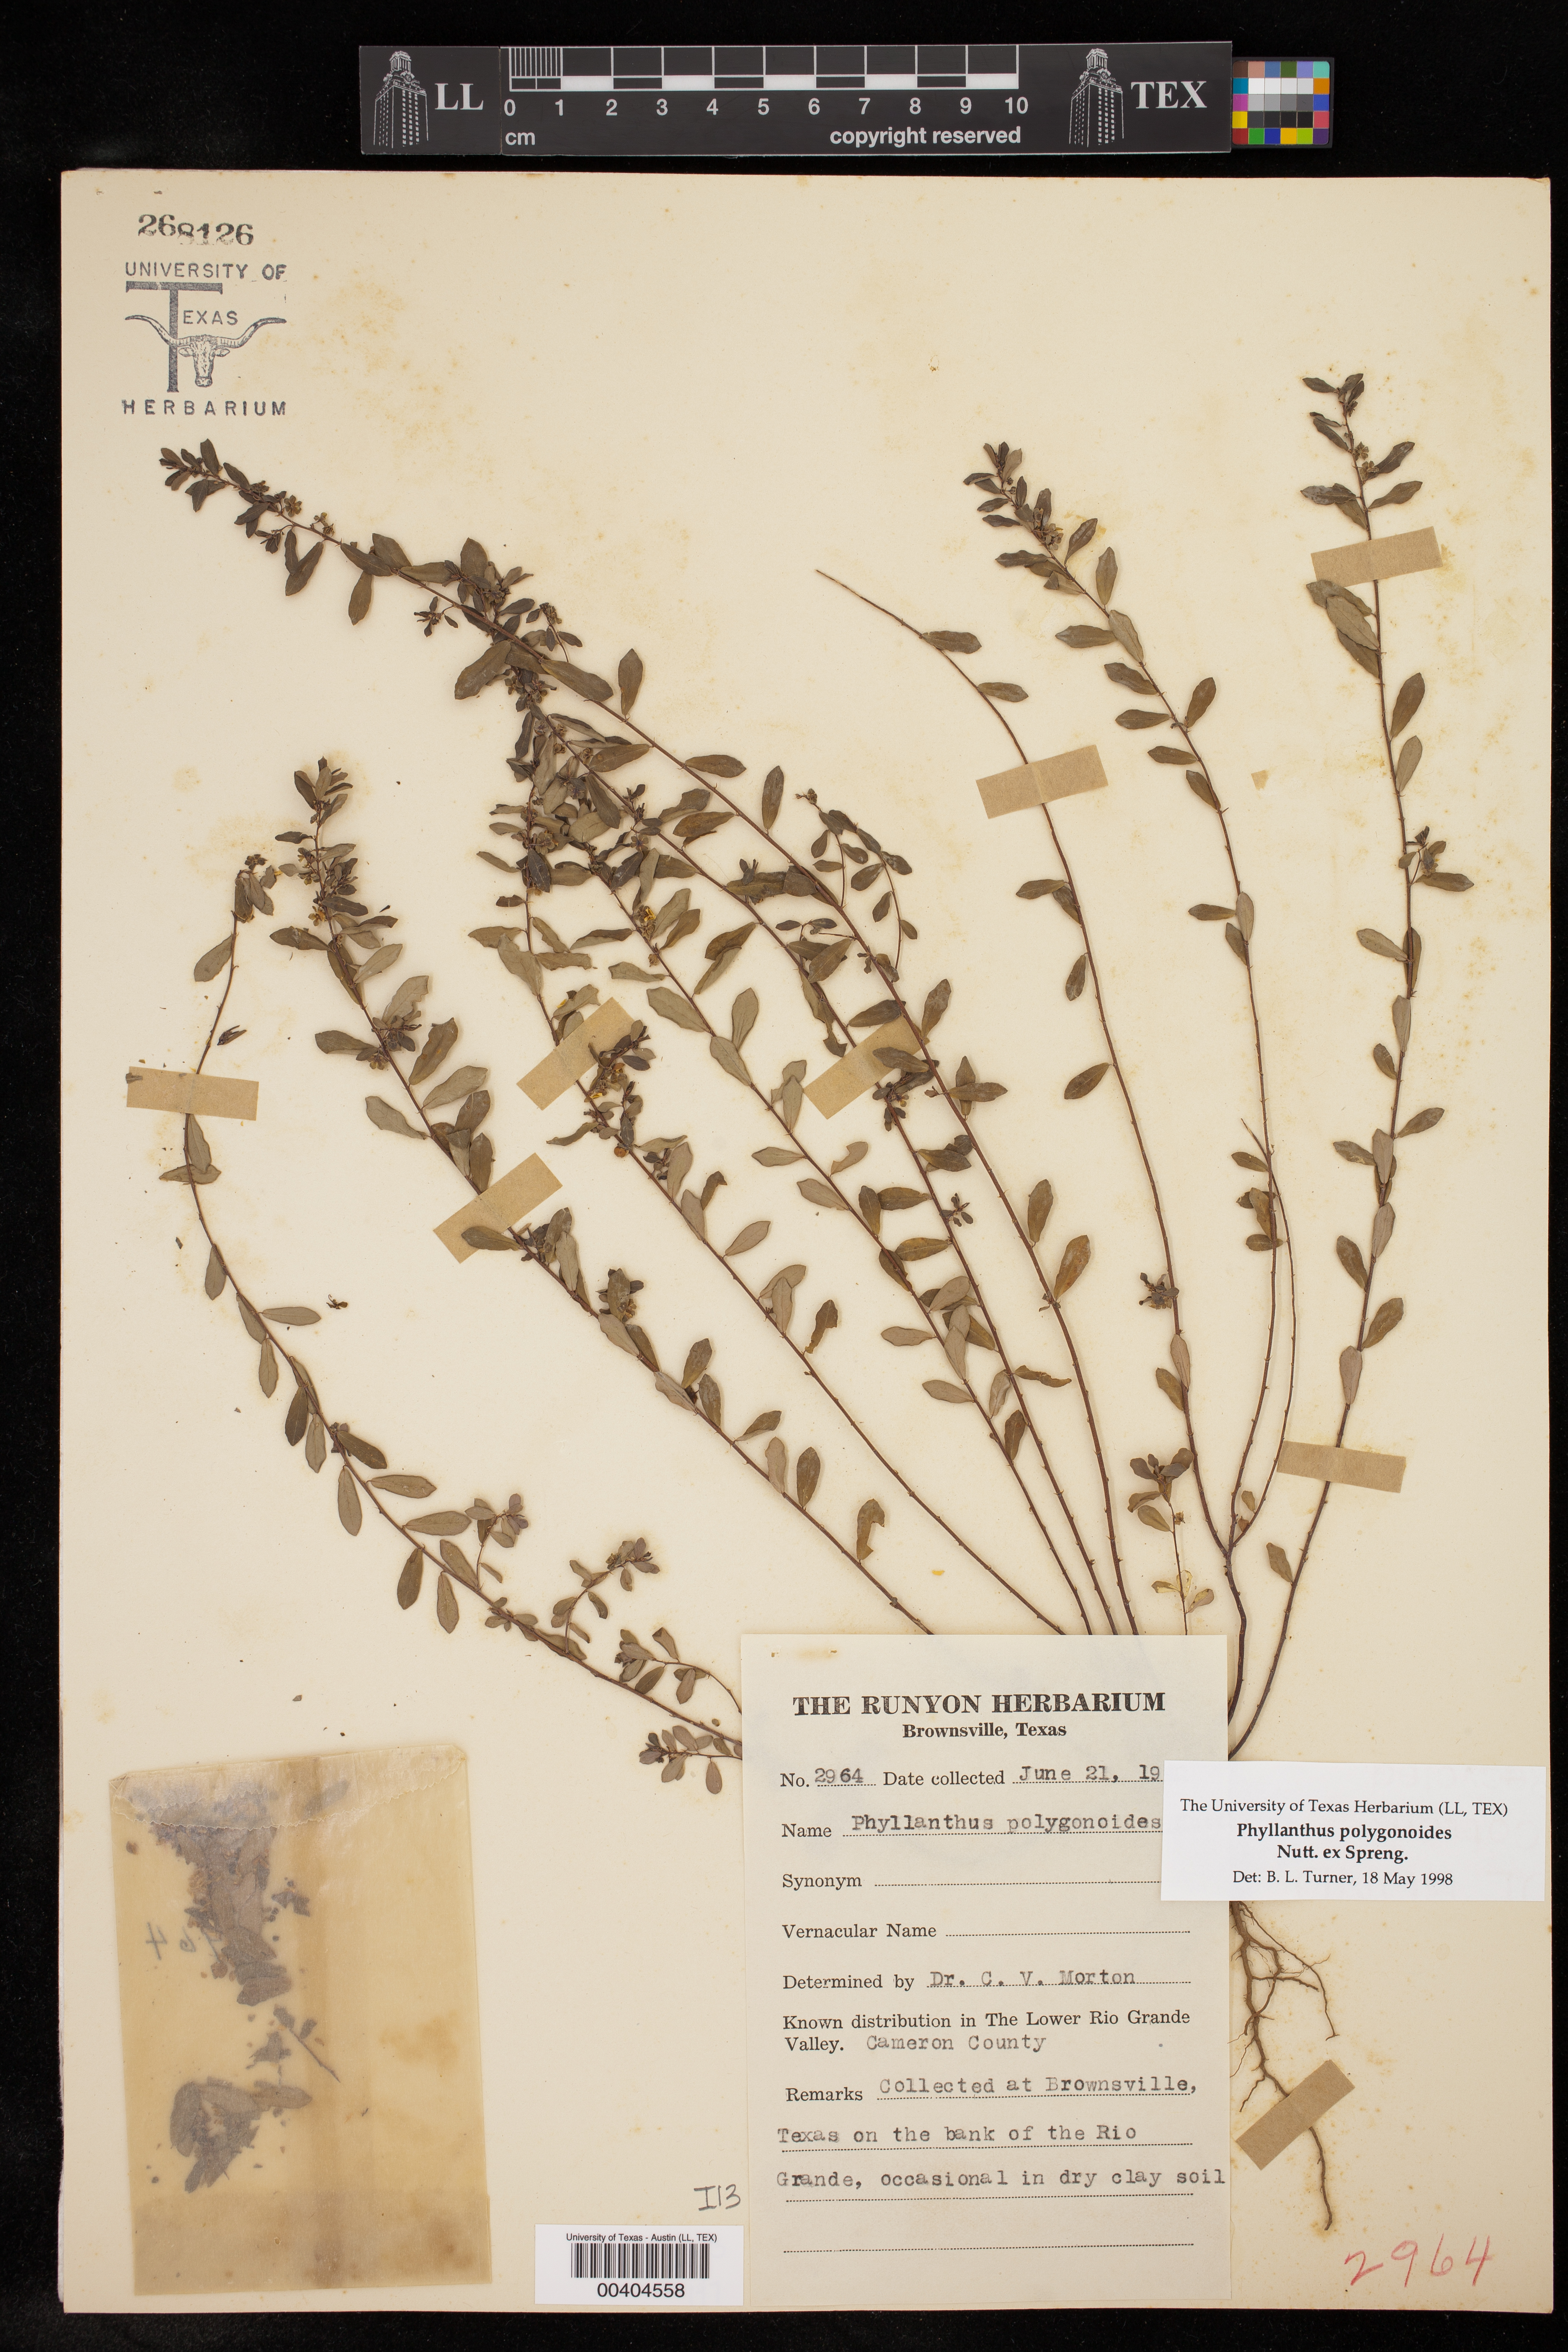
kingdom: Plantae
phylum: Tracheophyta
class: Magnoliopsida
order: Malpighiales
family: Phyllanthaceae
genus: Phyllanthus
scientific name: Phyllanthus polygonoides
